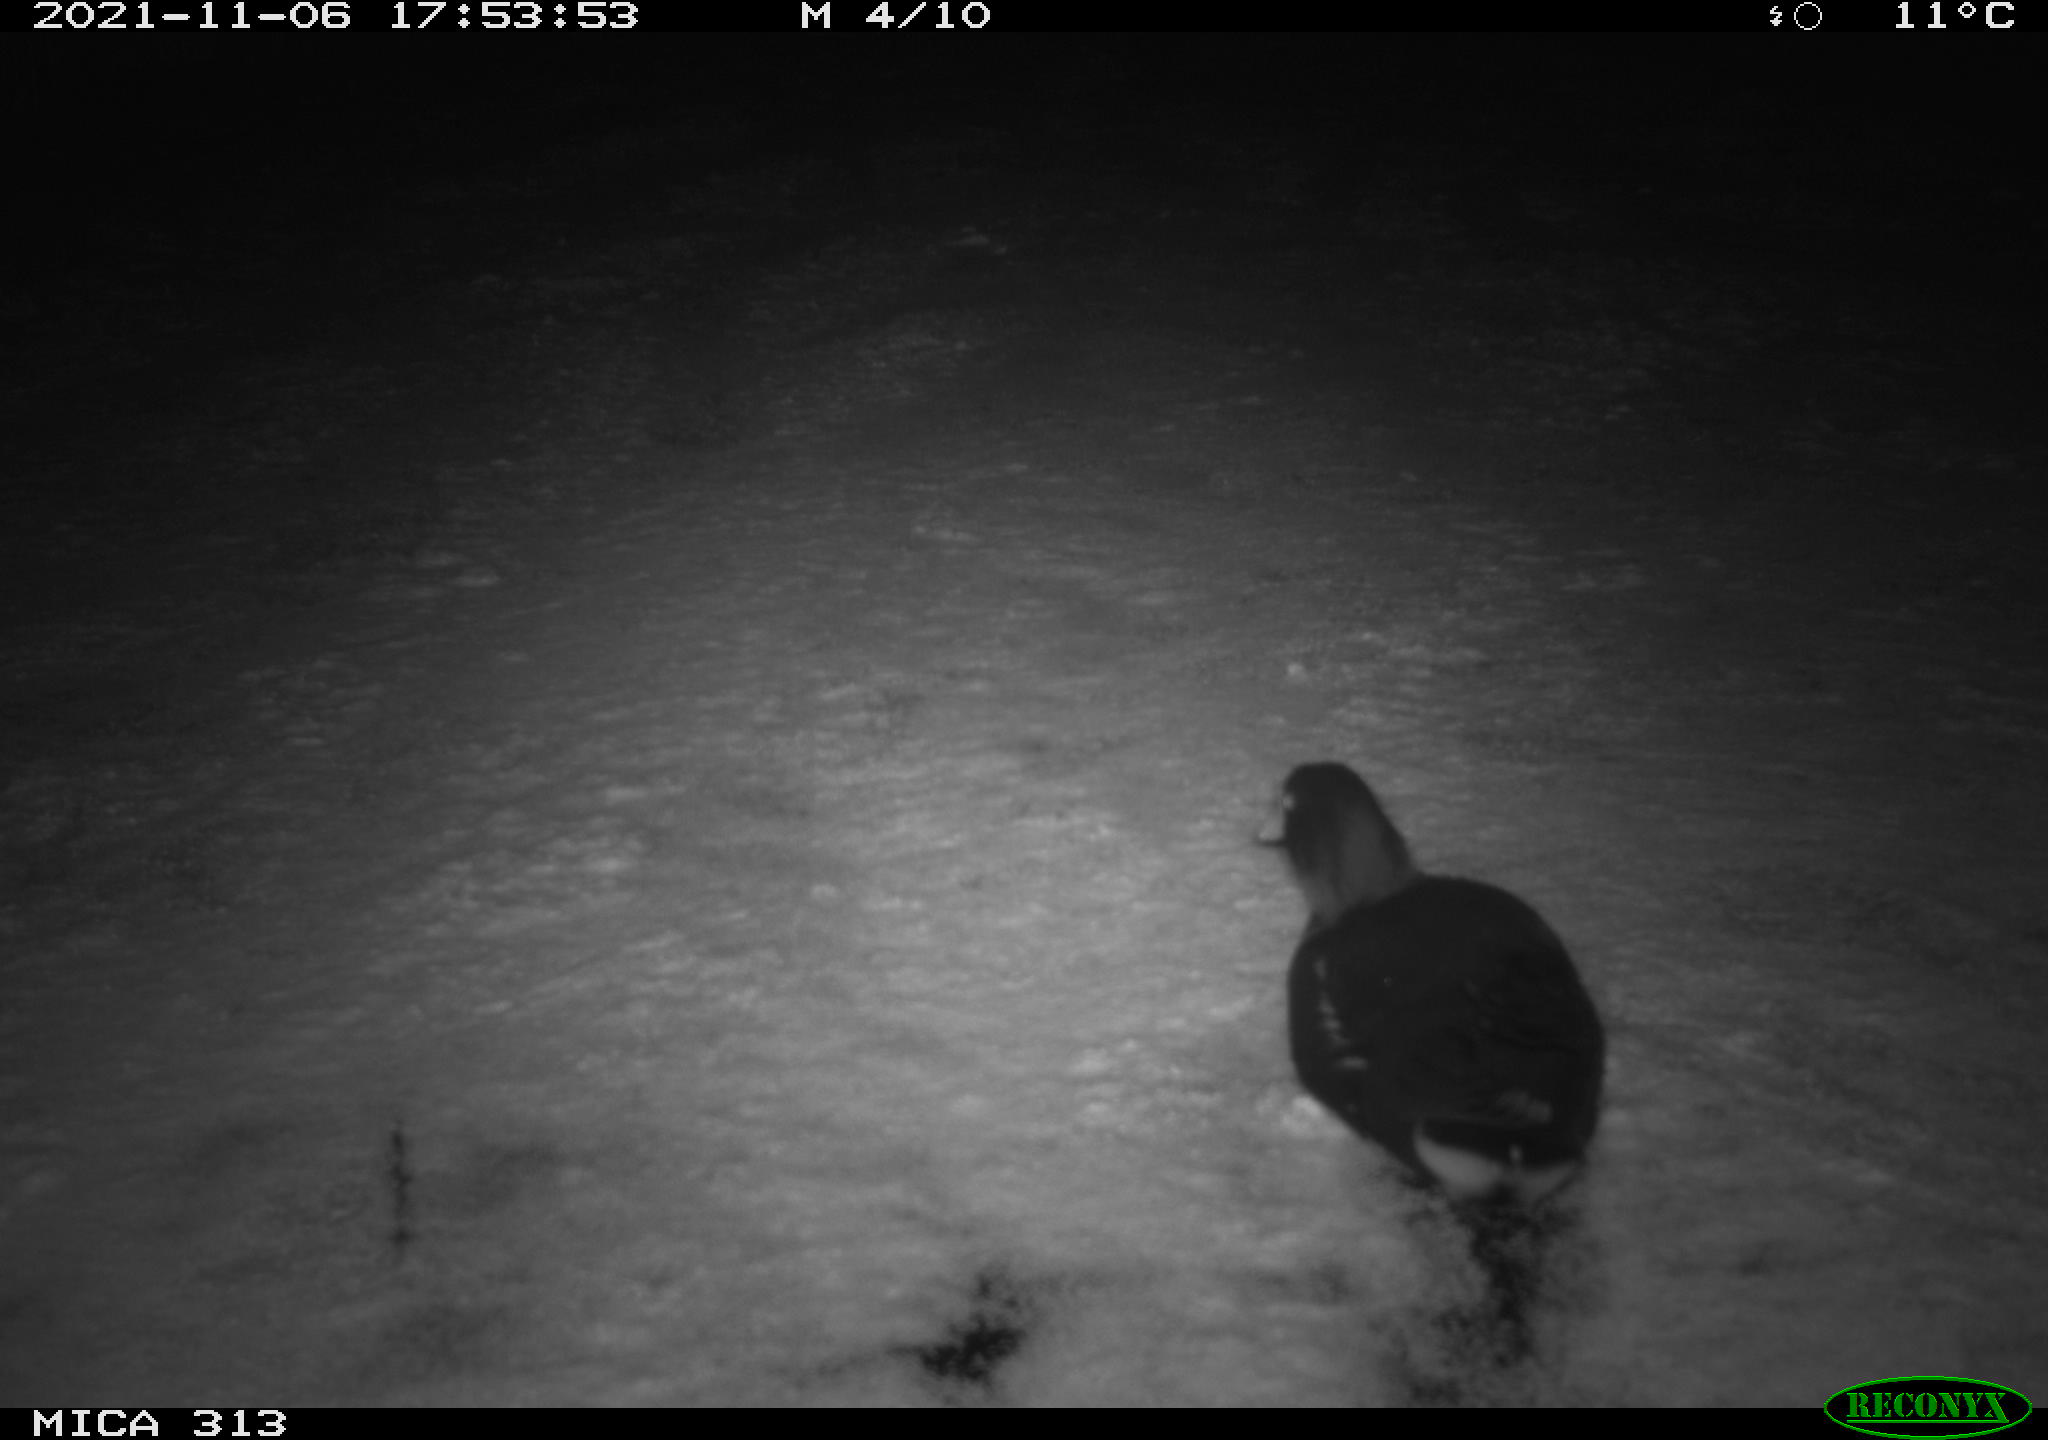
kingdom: Animalia
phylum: Chordata
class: Aves
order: Gruiformes
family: Rallidae
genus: Fulica
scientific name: Fulica atra
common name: Eurasian coot
